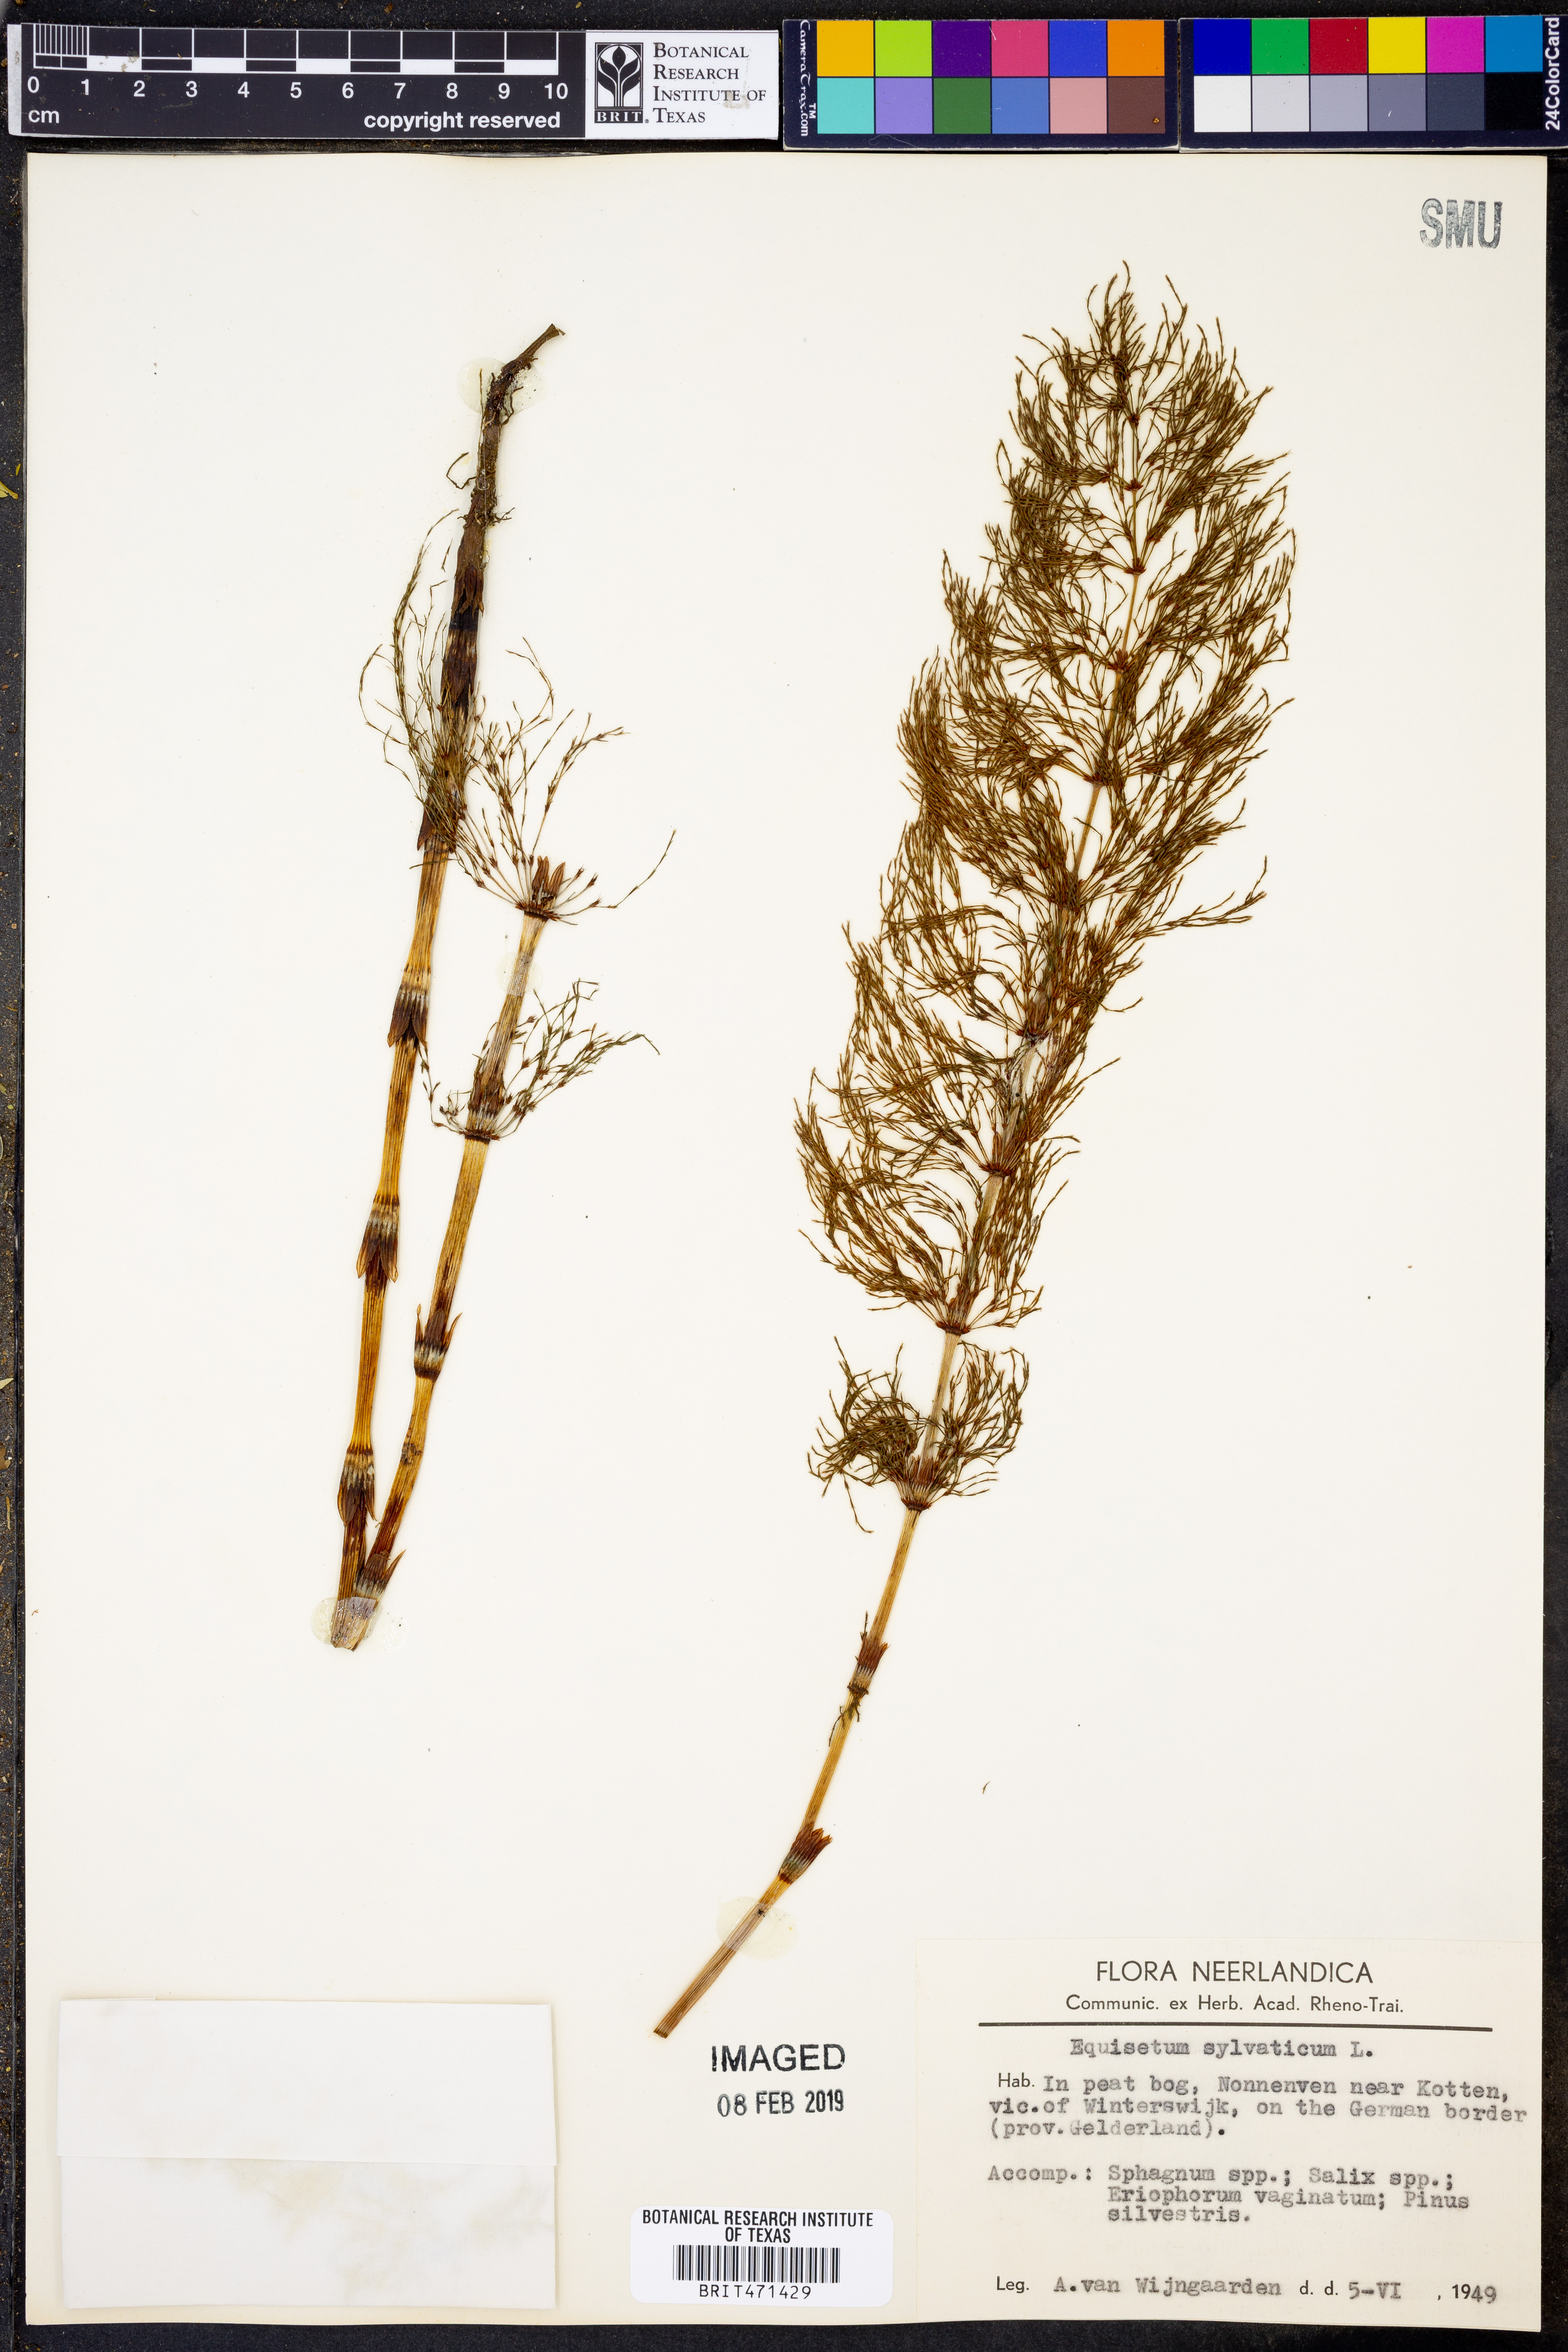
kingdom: Plantae
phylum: Tracheophyta
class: Polypodiopsida
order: Equisetales
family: Equisetaceae
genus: Equisetum
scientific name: Equisetum sylvaticum
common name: Wood horsetail
